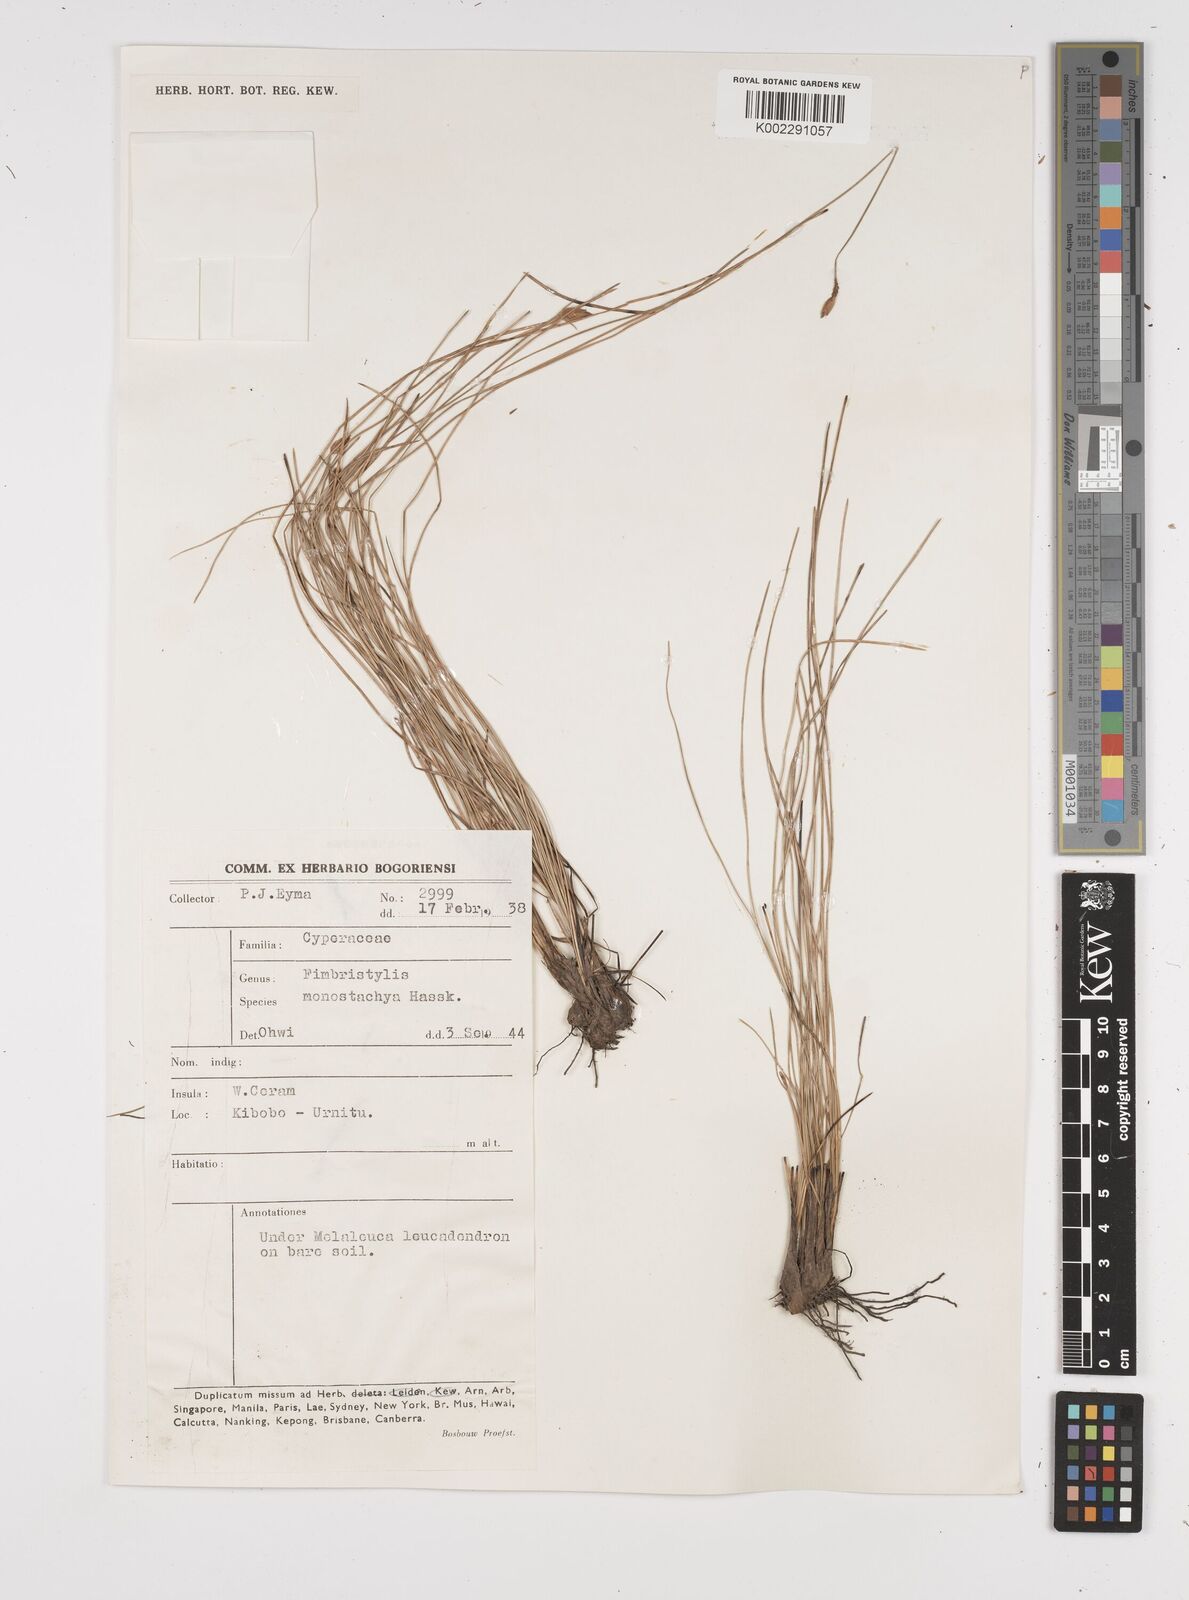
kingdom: Plantae
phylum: Tracheophyta
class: Liliopsida
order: Poales
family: Cyperaceae
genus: Abildgaardia
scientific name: Abildgaardia ovata
